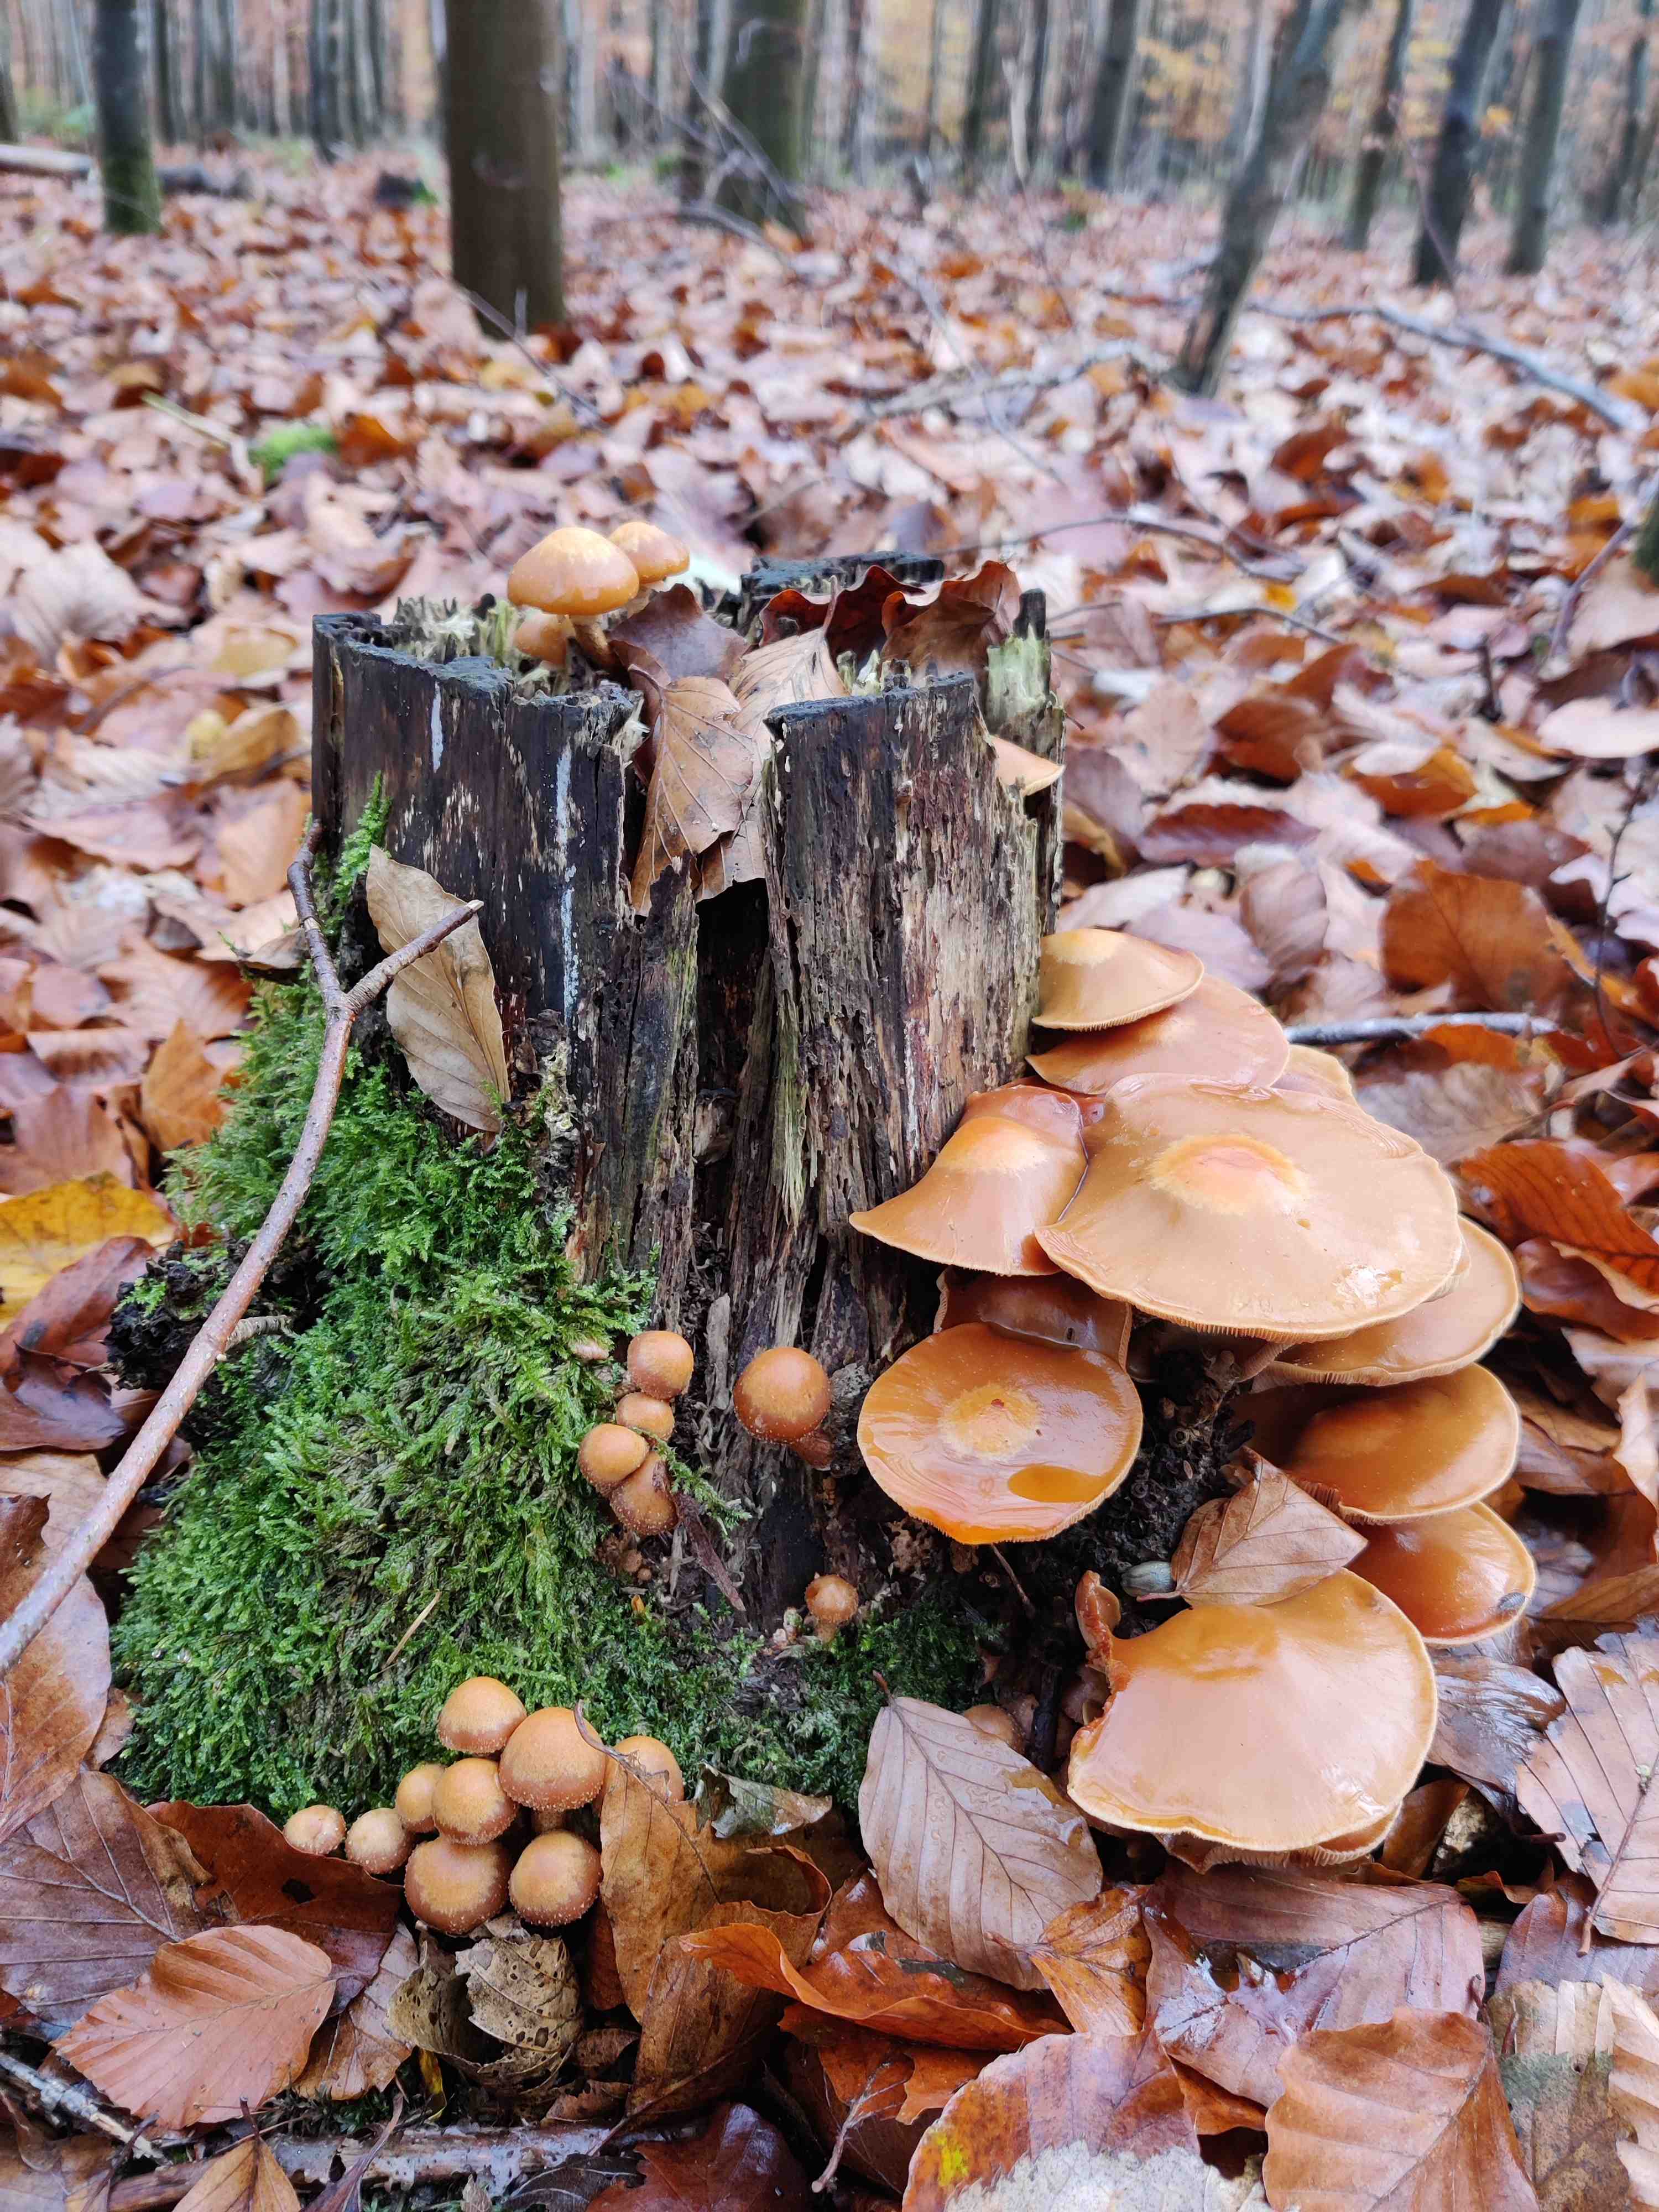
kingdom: Fungi
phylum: Basidiomycota
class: Agaricomycetes
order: Agaricales
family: Strophariaceae
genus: Kuehneromyces
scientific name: Kuehneromyces mutabilis
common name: foranderlig skælhat
